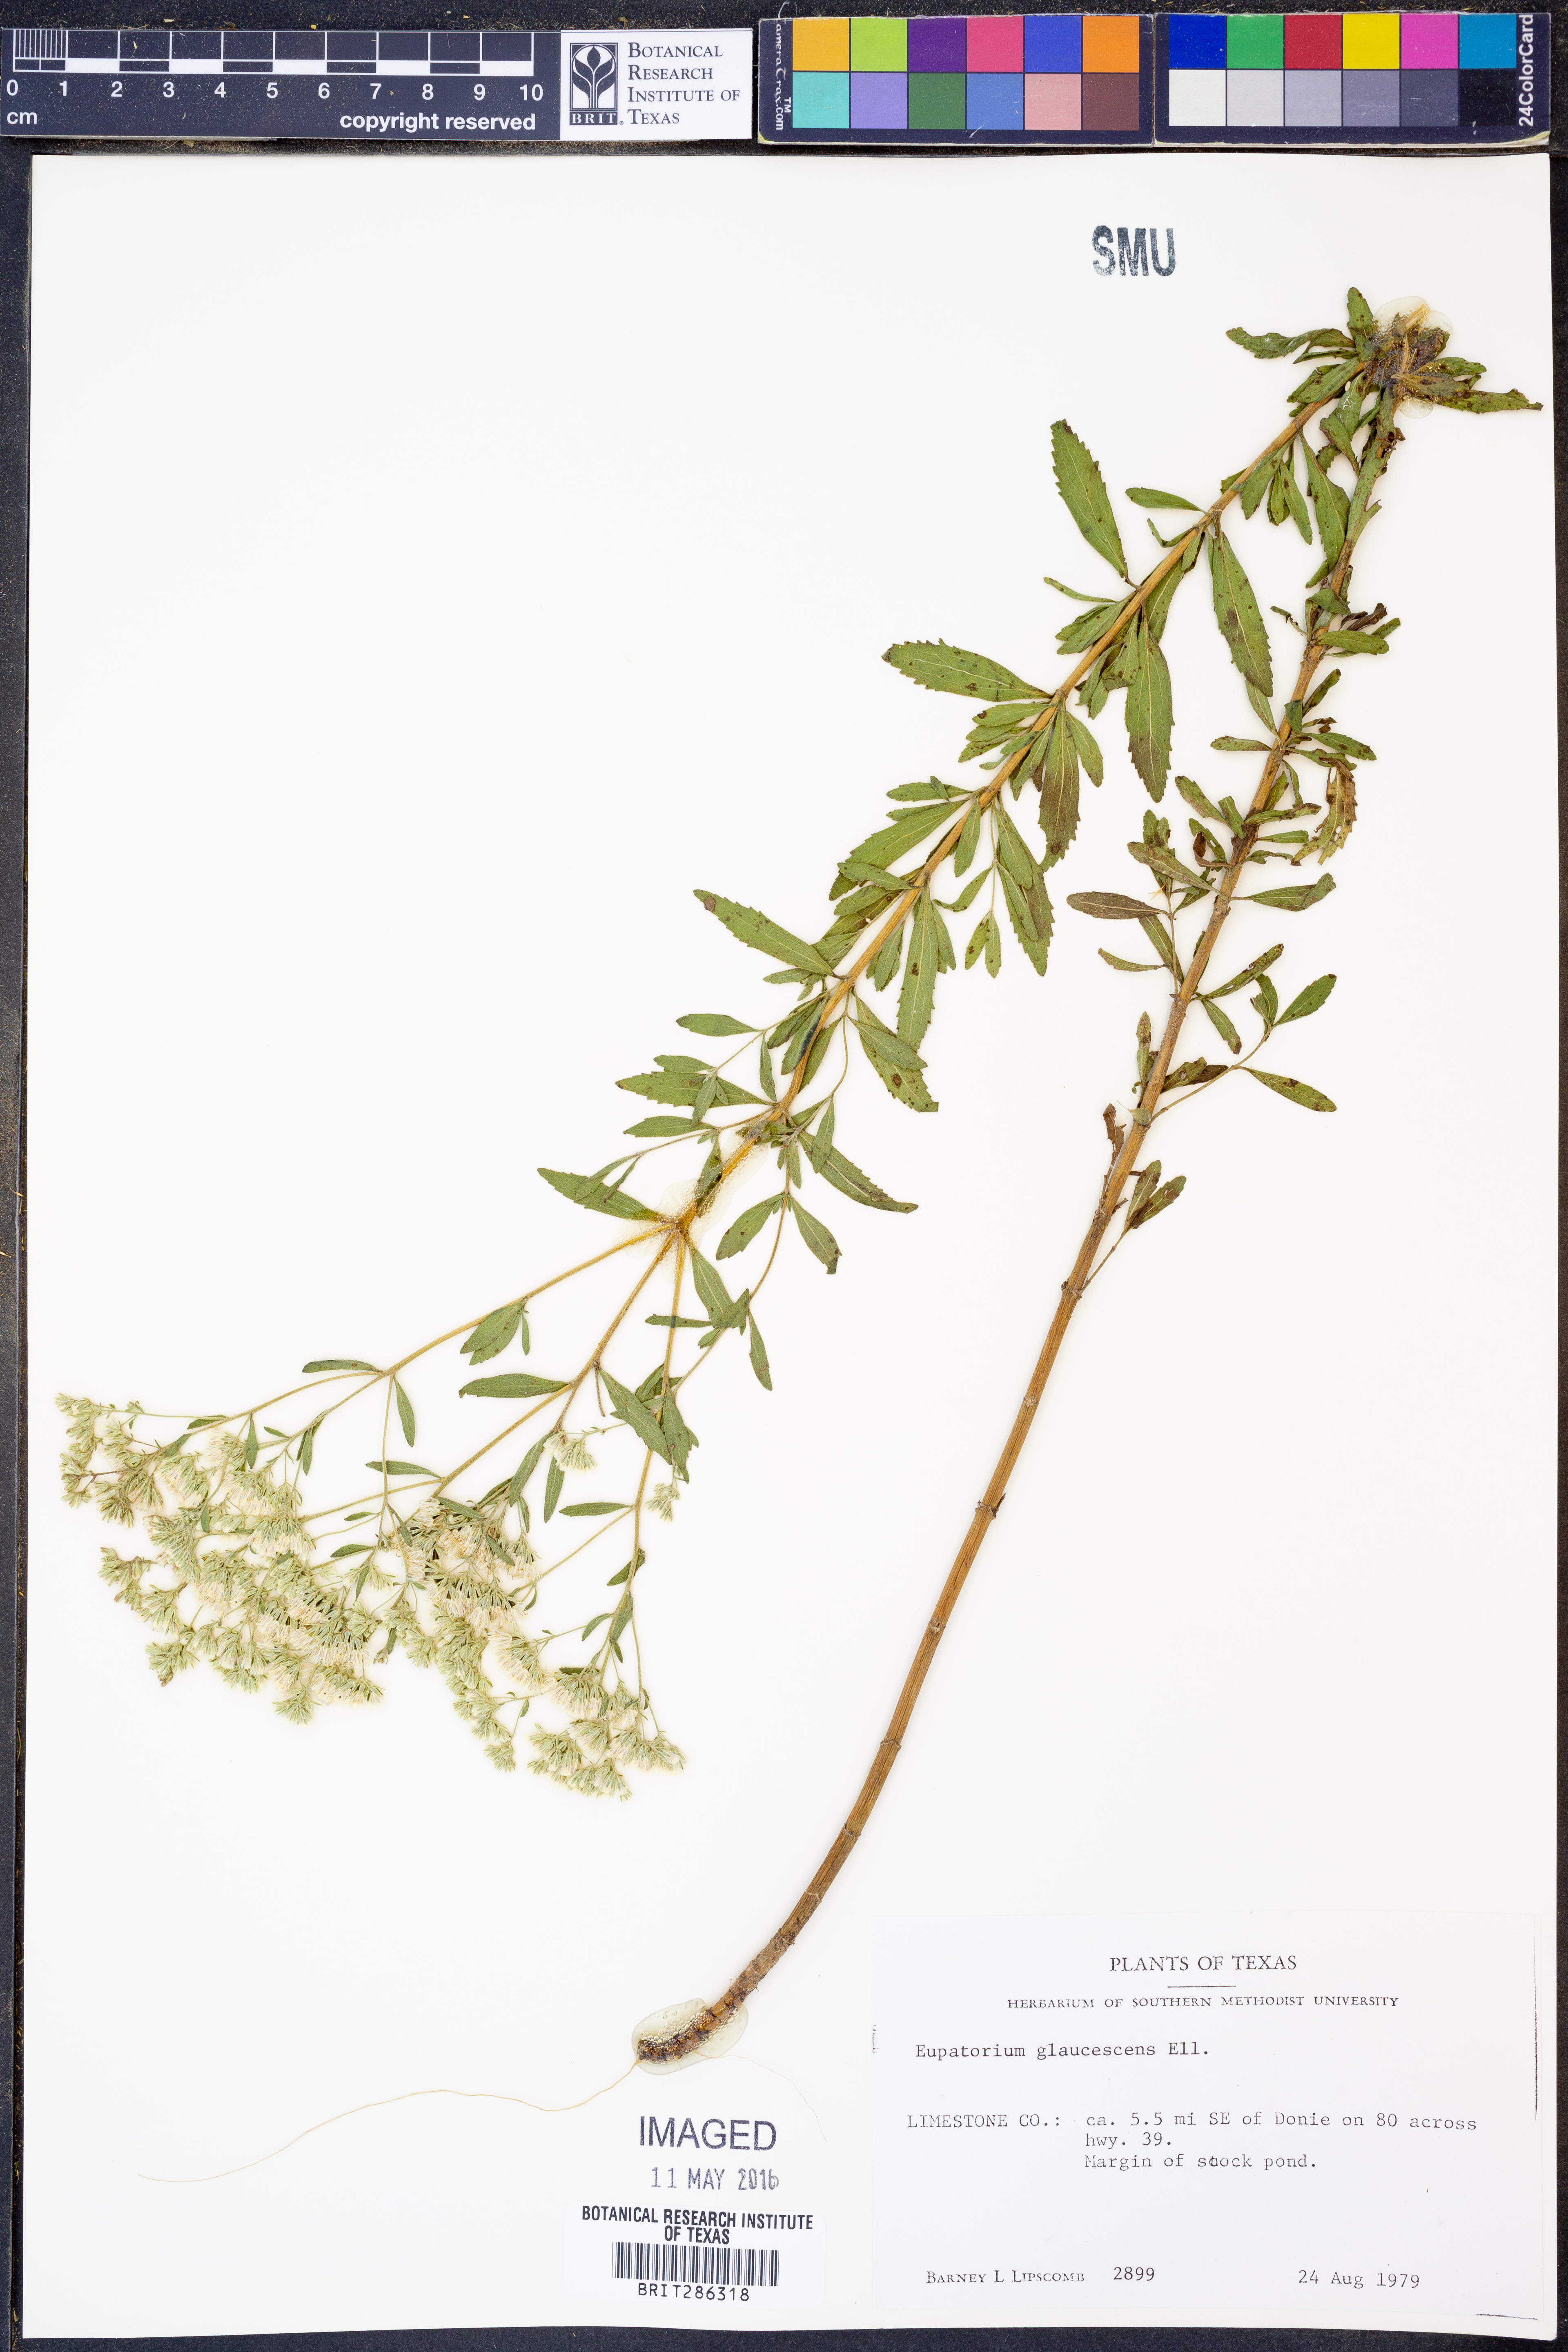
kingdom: Plantae
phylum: Tracheophyta
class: Magnoliopsida
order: Asterales
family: Asteraceae
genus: Eupatorium
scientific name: Eupatorium linearifolium
